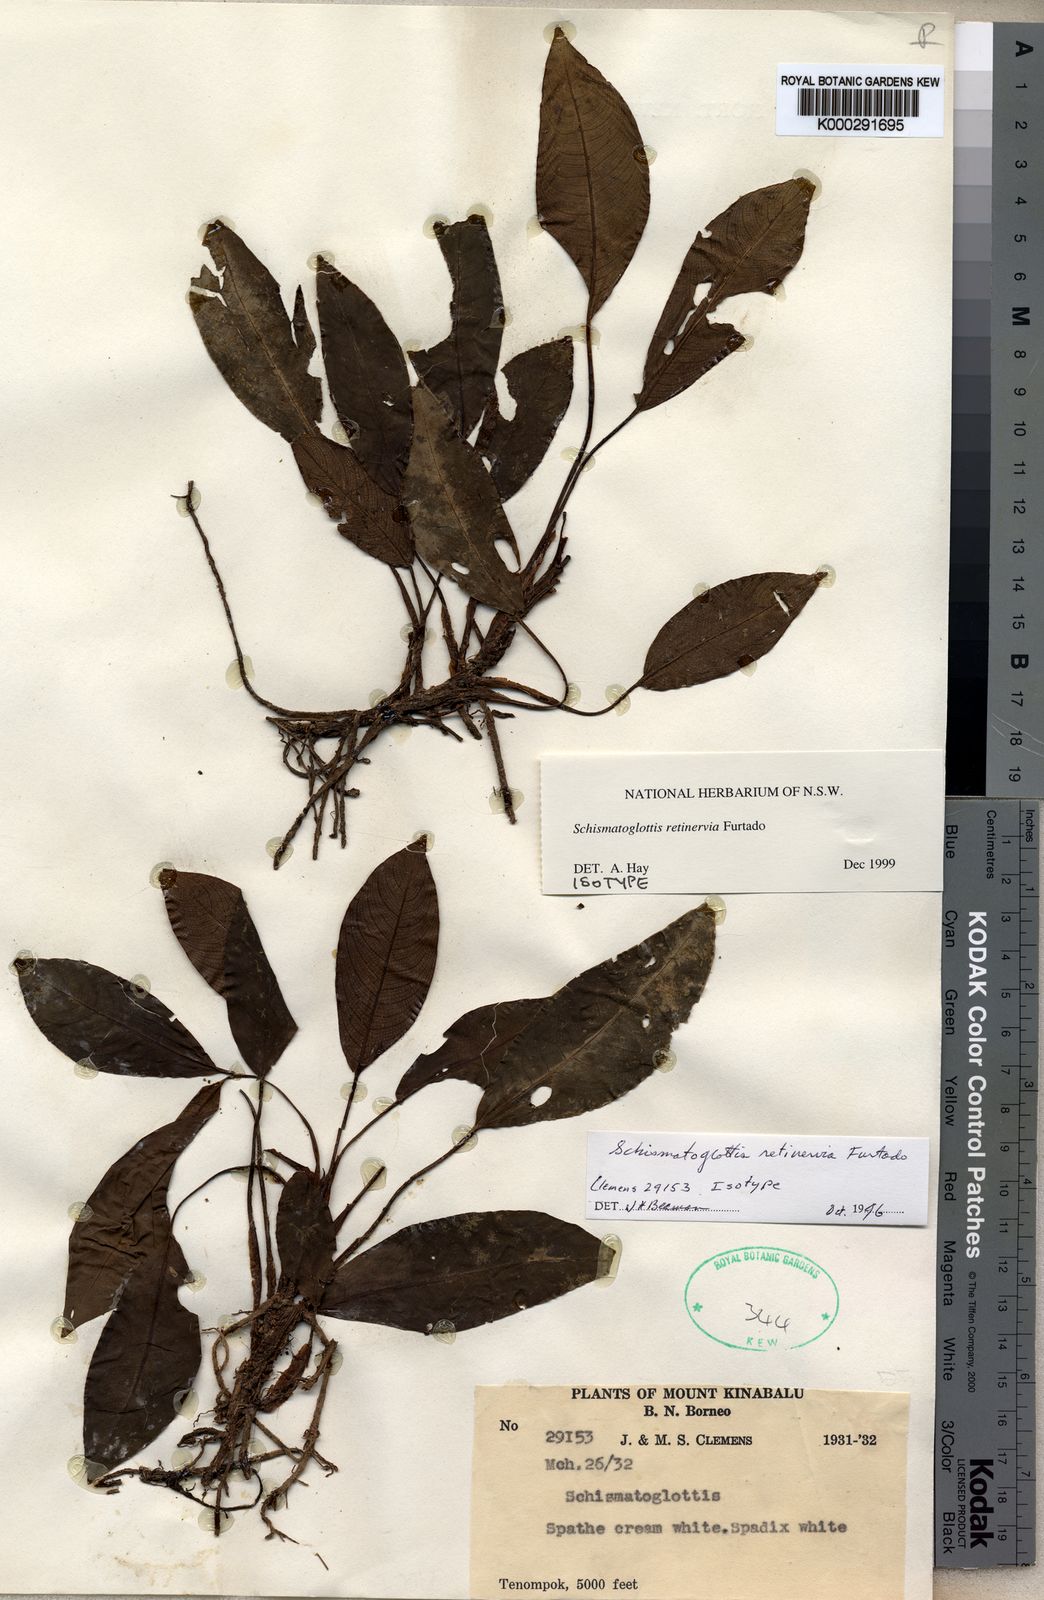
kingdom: Plantae
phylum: Tracheophyta
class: Liliopsida
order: Alismatales
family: Araceae
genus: Schismatoglottis
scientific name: Schismatoglottis retinervia
